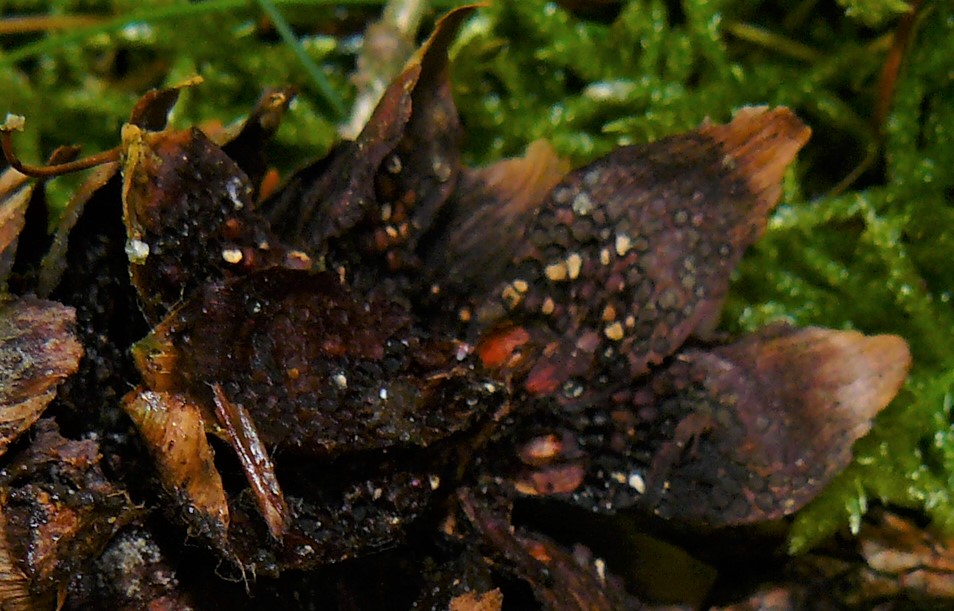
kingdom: Fungi
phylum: Basidiomycota
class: Pucciniomycetes
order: Pucciniales
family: Pucciniastraceae
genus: Thekopsora
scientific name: Thekopsora areolata
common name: grankogle-nålerust
